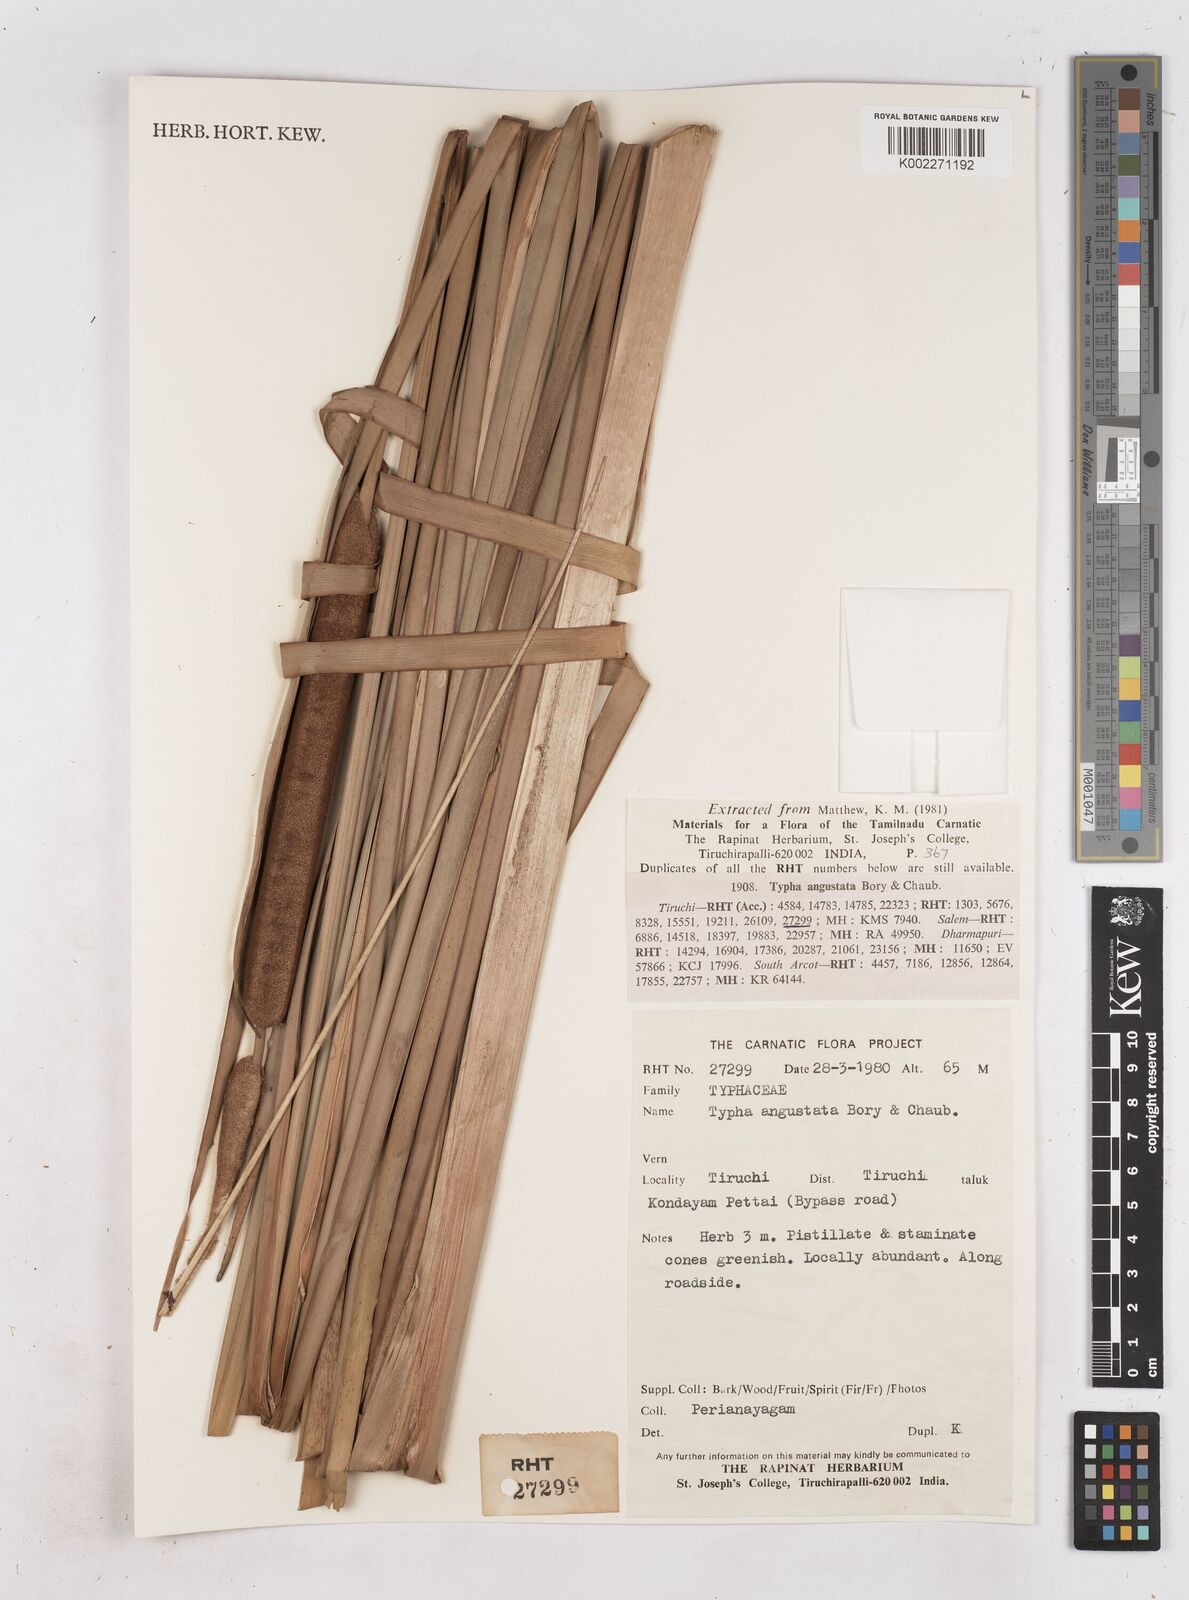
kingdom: Plantae
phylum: Tracheophyta
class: Liliopsida
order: Poales
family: Typhaceae
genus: Typha
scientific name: Typha domingensis
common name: Southern cattail
